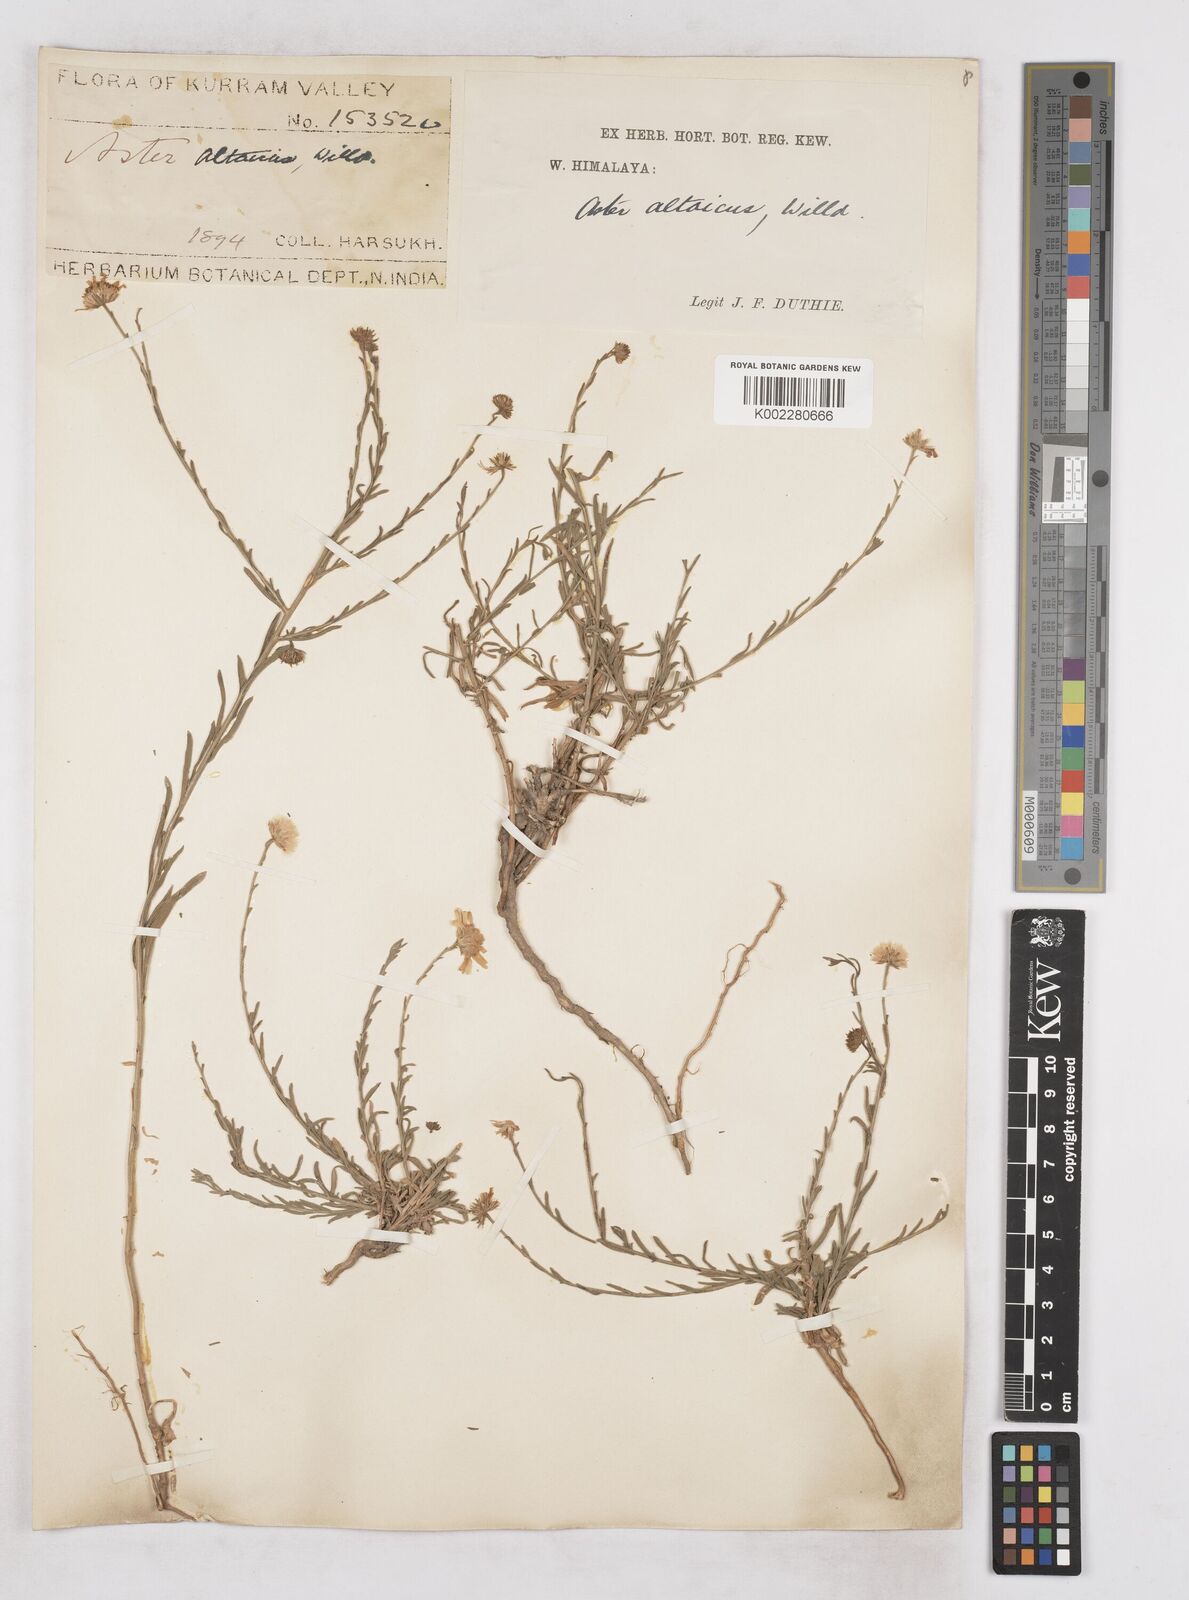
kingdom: Plantae
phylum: Tracheophyta
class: Magnoliopsida
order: Asterales
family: Asteraceae
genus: Heteropappus
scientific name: Heteropappus altaicus
